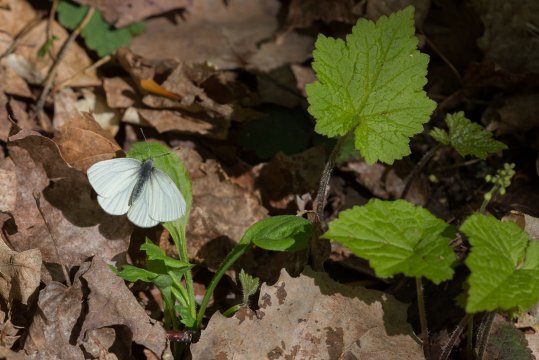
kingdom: Animalia
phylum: Arthropoda
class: Insecta
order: Lepidoptera
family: Pieridae
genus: Pieris
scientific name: Pieris
